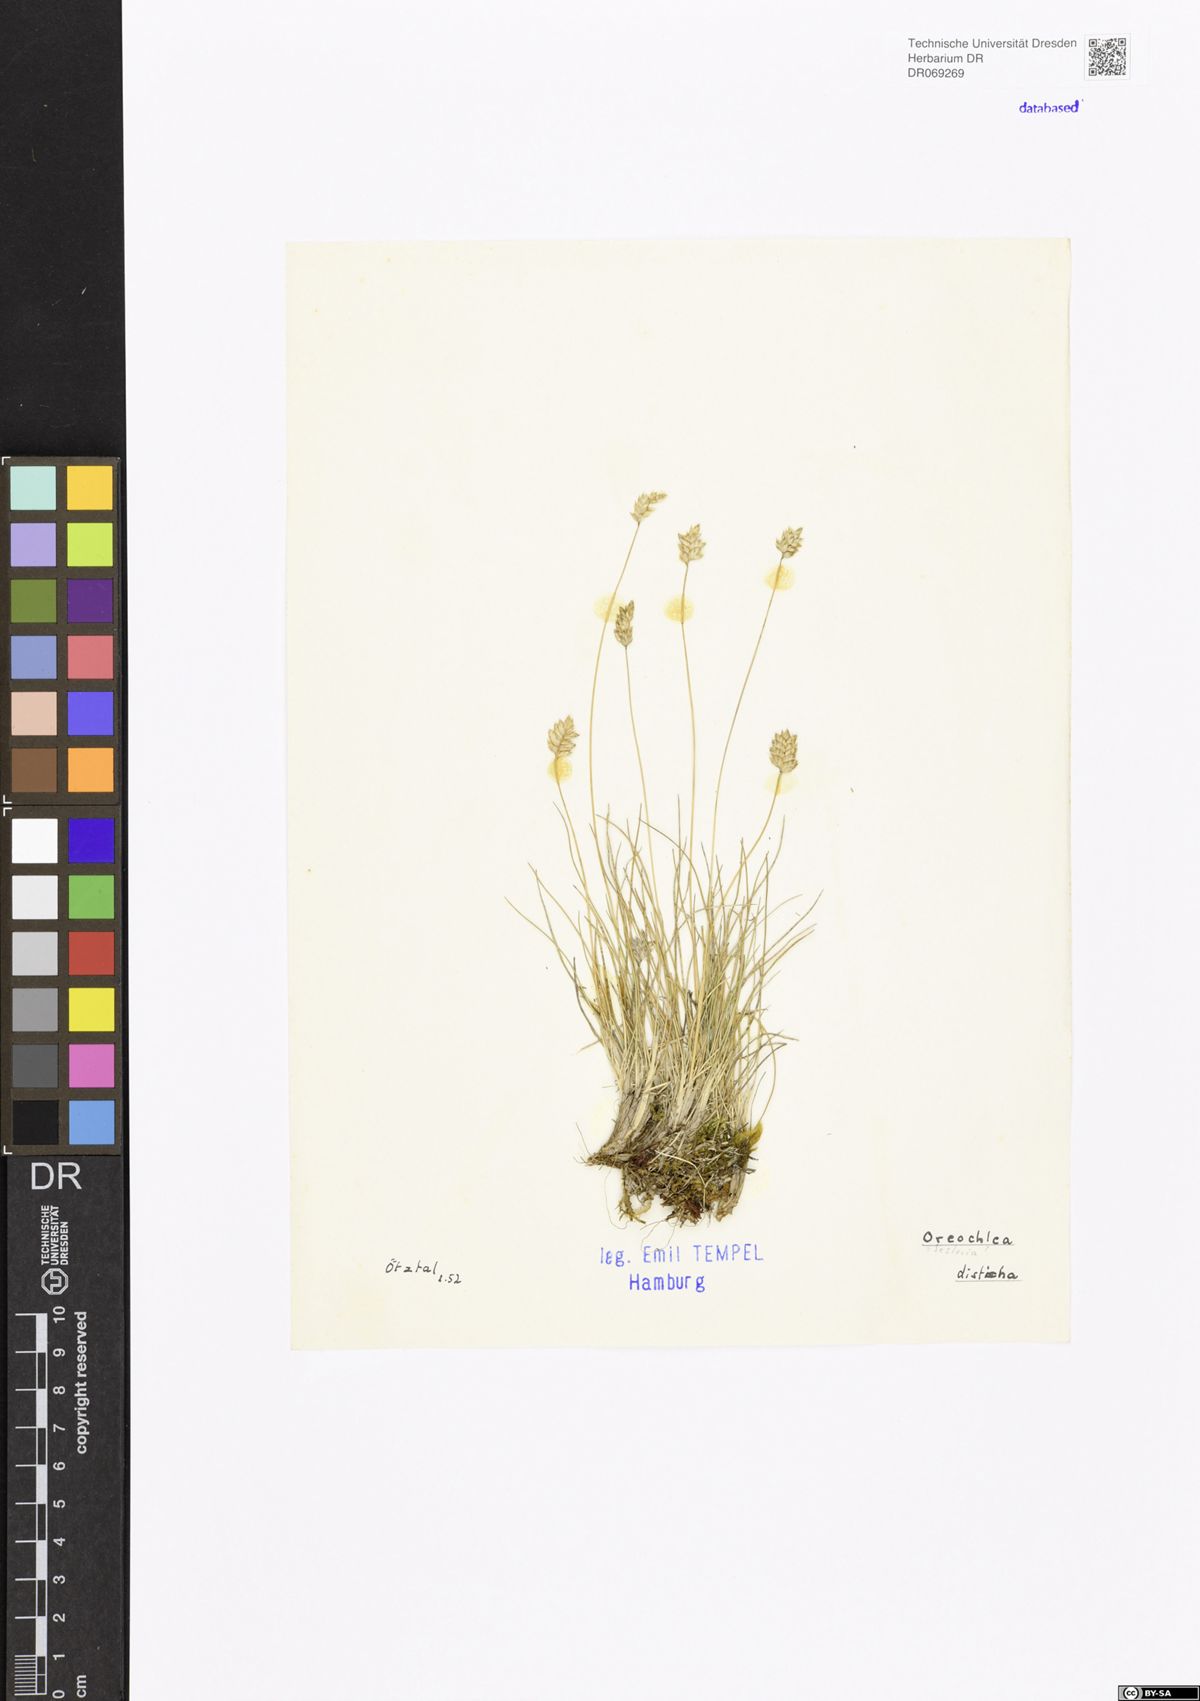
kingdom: Plantae
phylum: Tracheophyta
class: Liliopsida
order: Poales
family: Poaceae
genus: Oreochloa
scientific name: Oreochloa disticha
